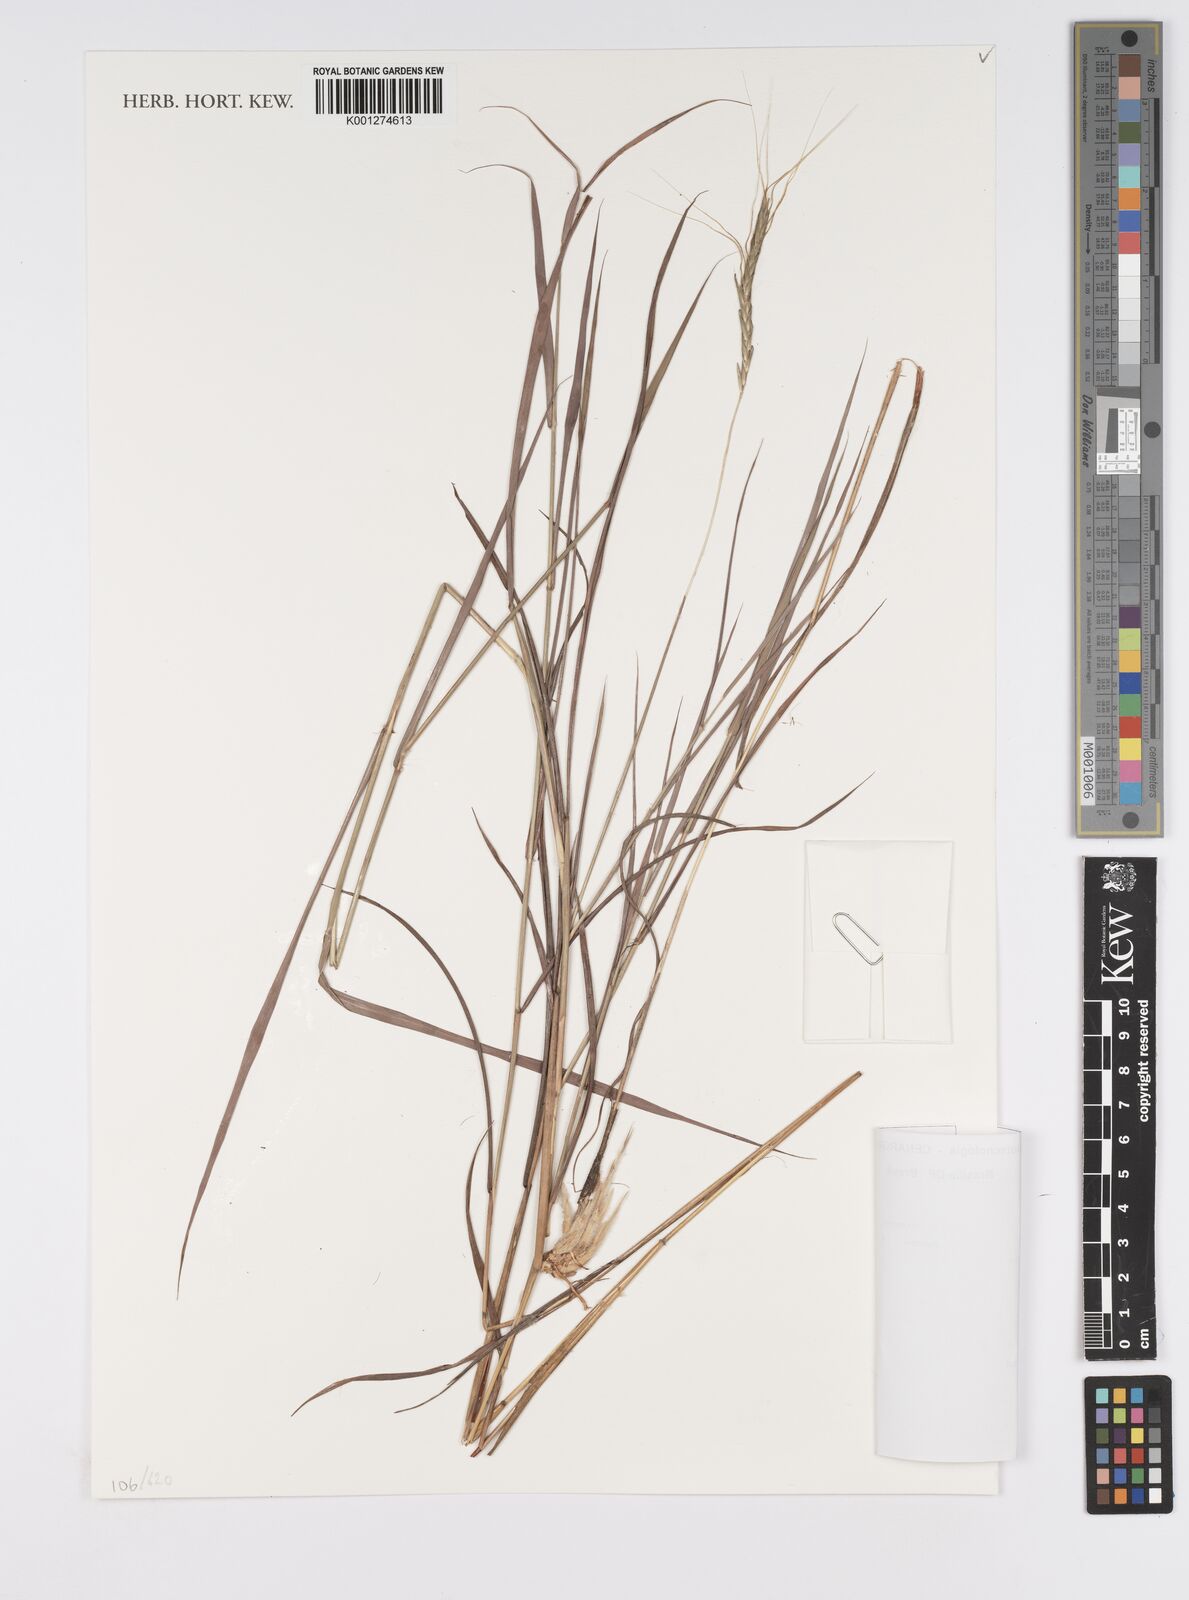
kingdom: Plantae
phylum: Tracheophyta
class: Liliopsida
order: Poales
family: Poaceae
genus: Agenium
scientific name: Agenium
